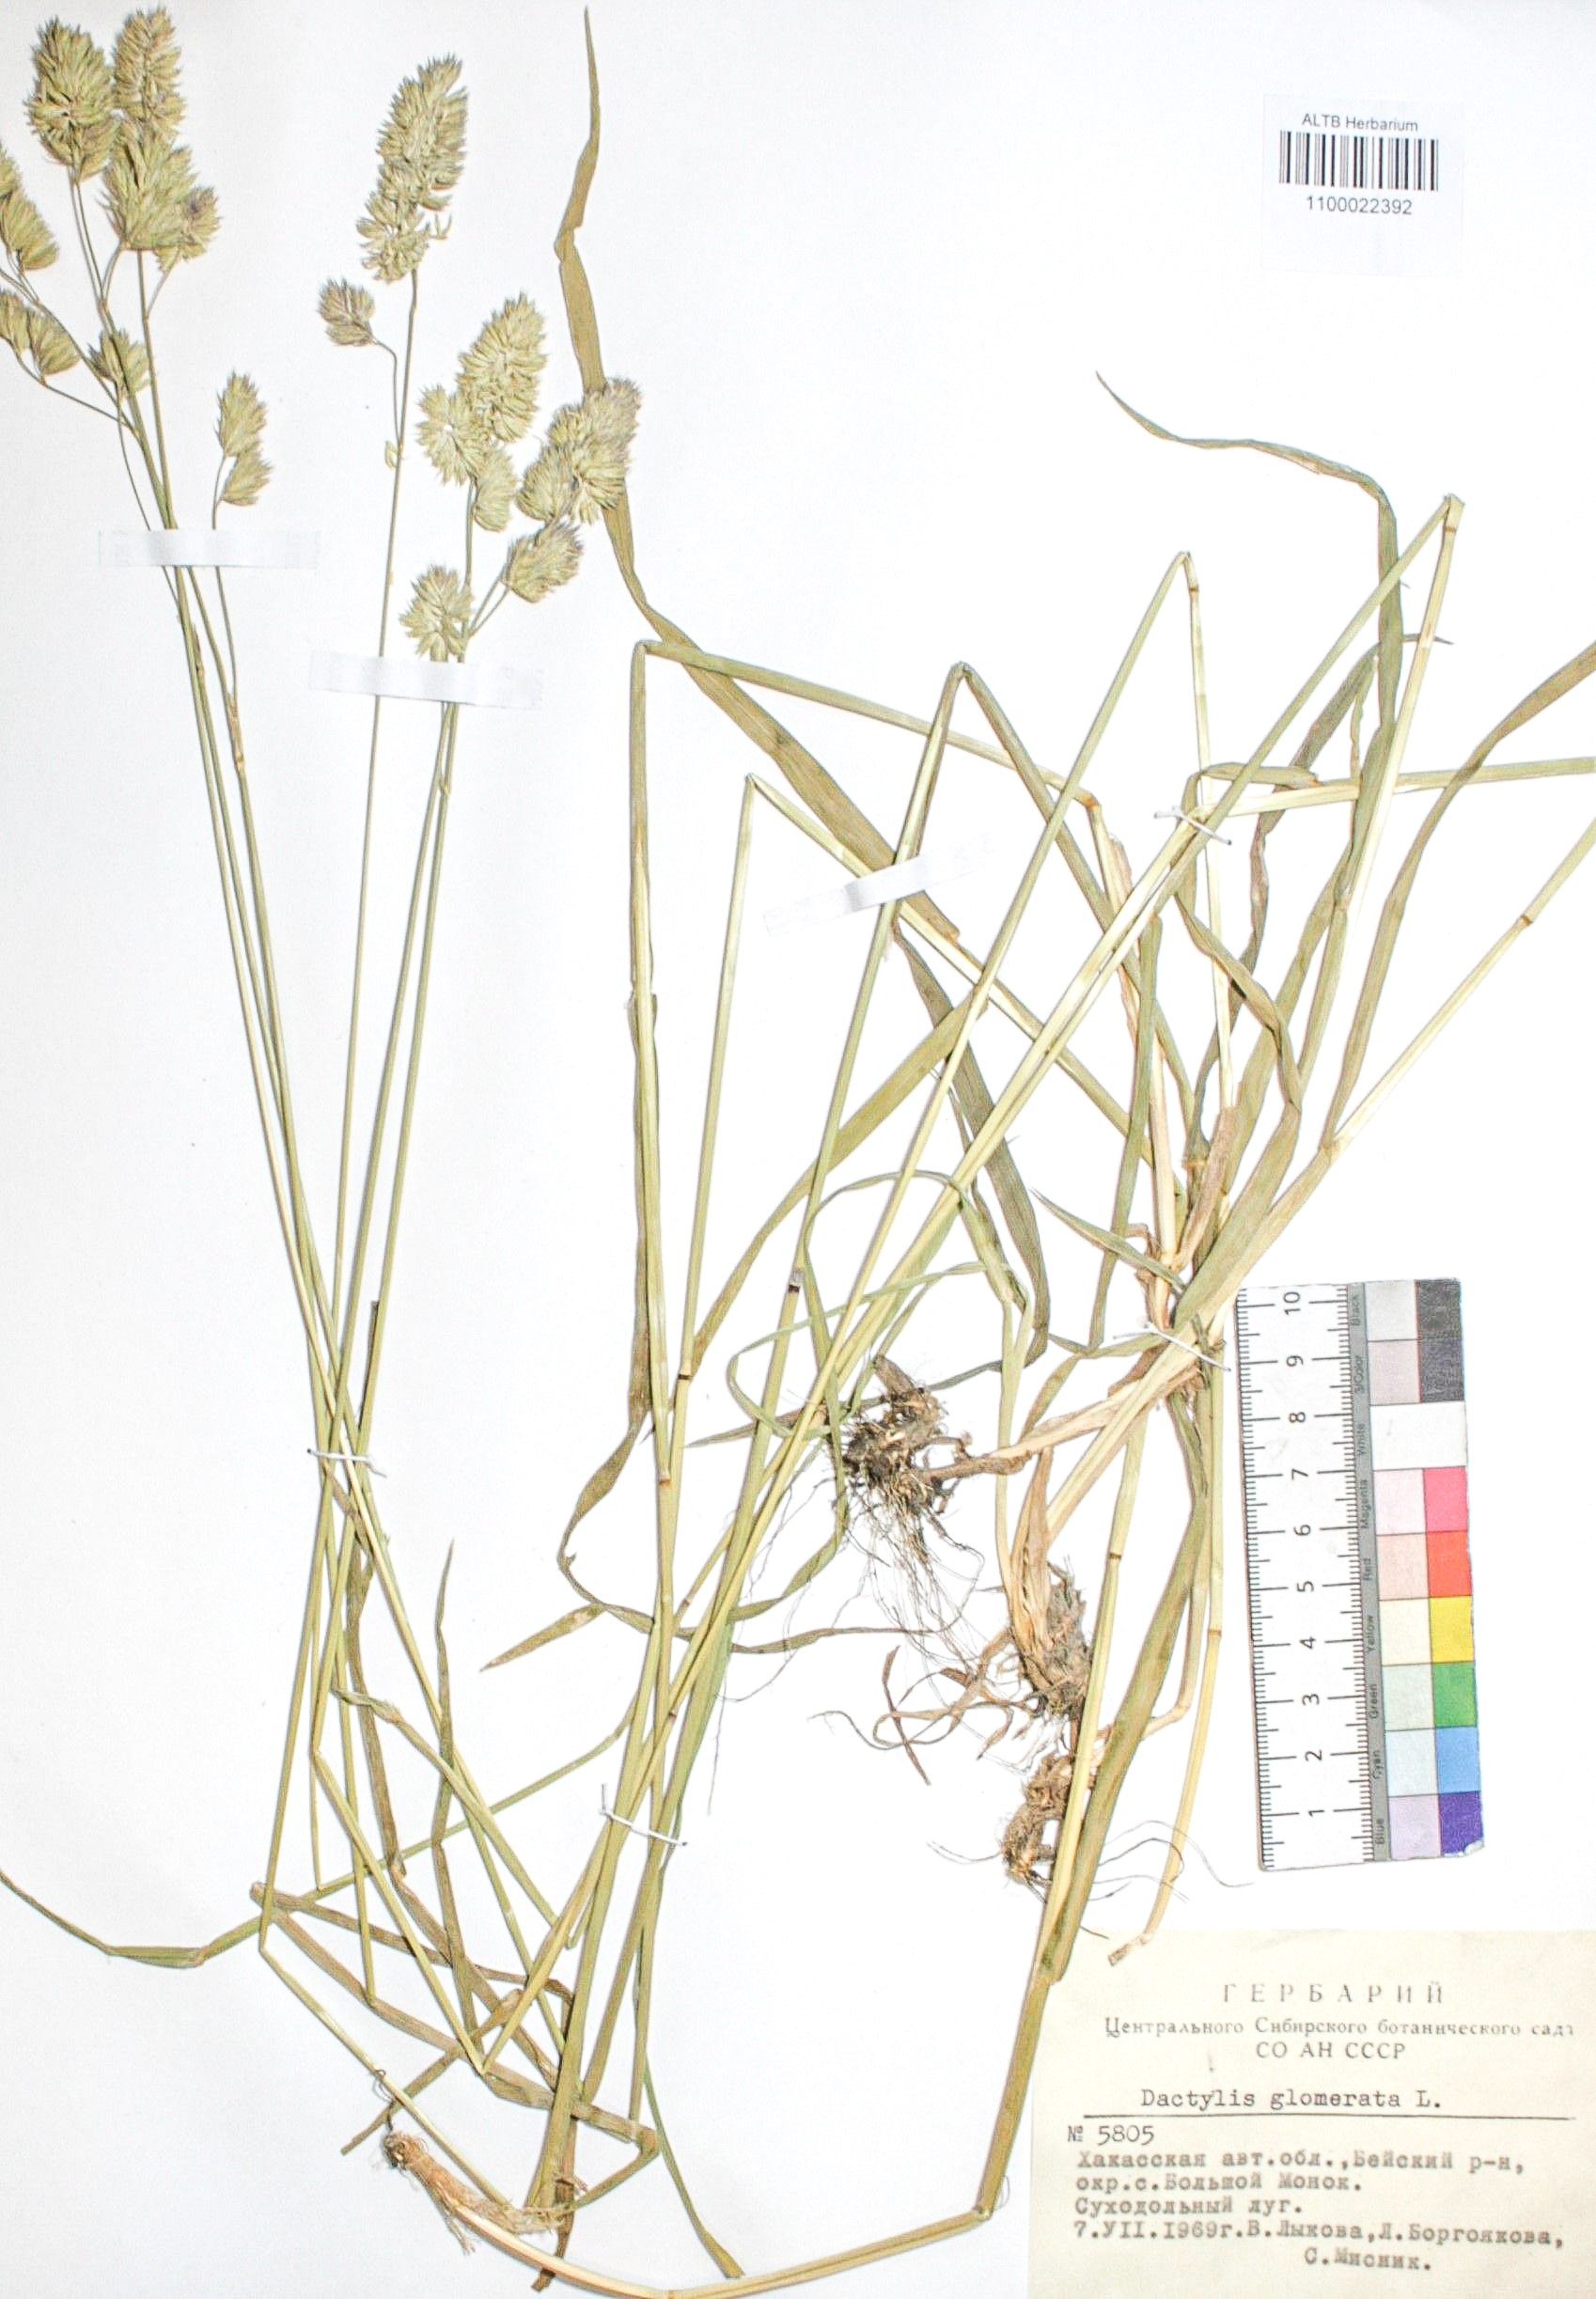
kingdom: Plantae
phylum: Tracheophyta
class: Liliopsida
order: Poales
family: Poaceae
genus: Dactylis
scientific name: Dactylis glomerata
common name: Orchardgrass
